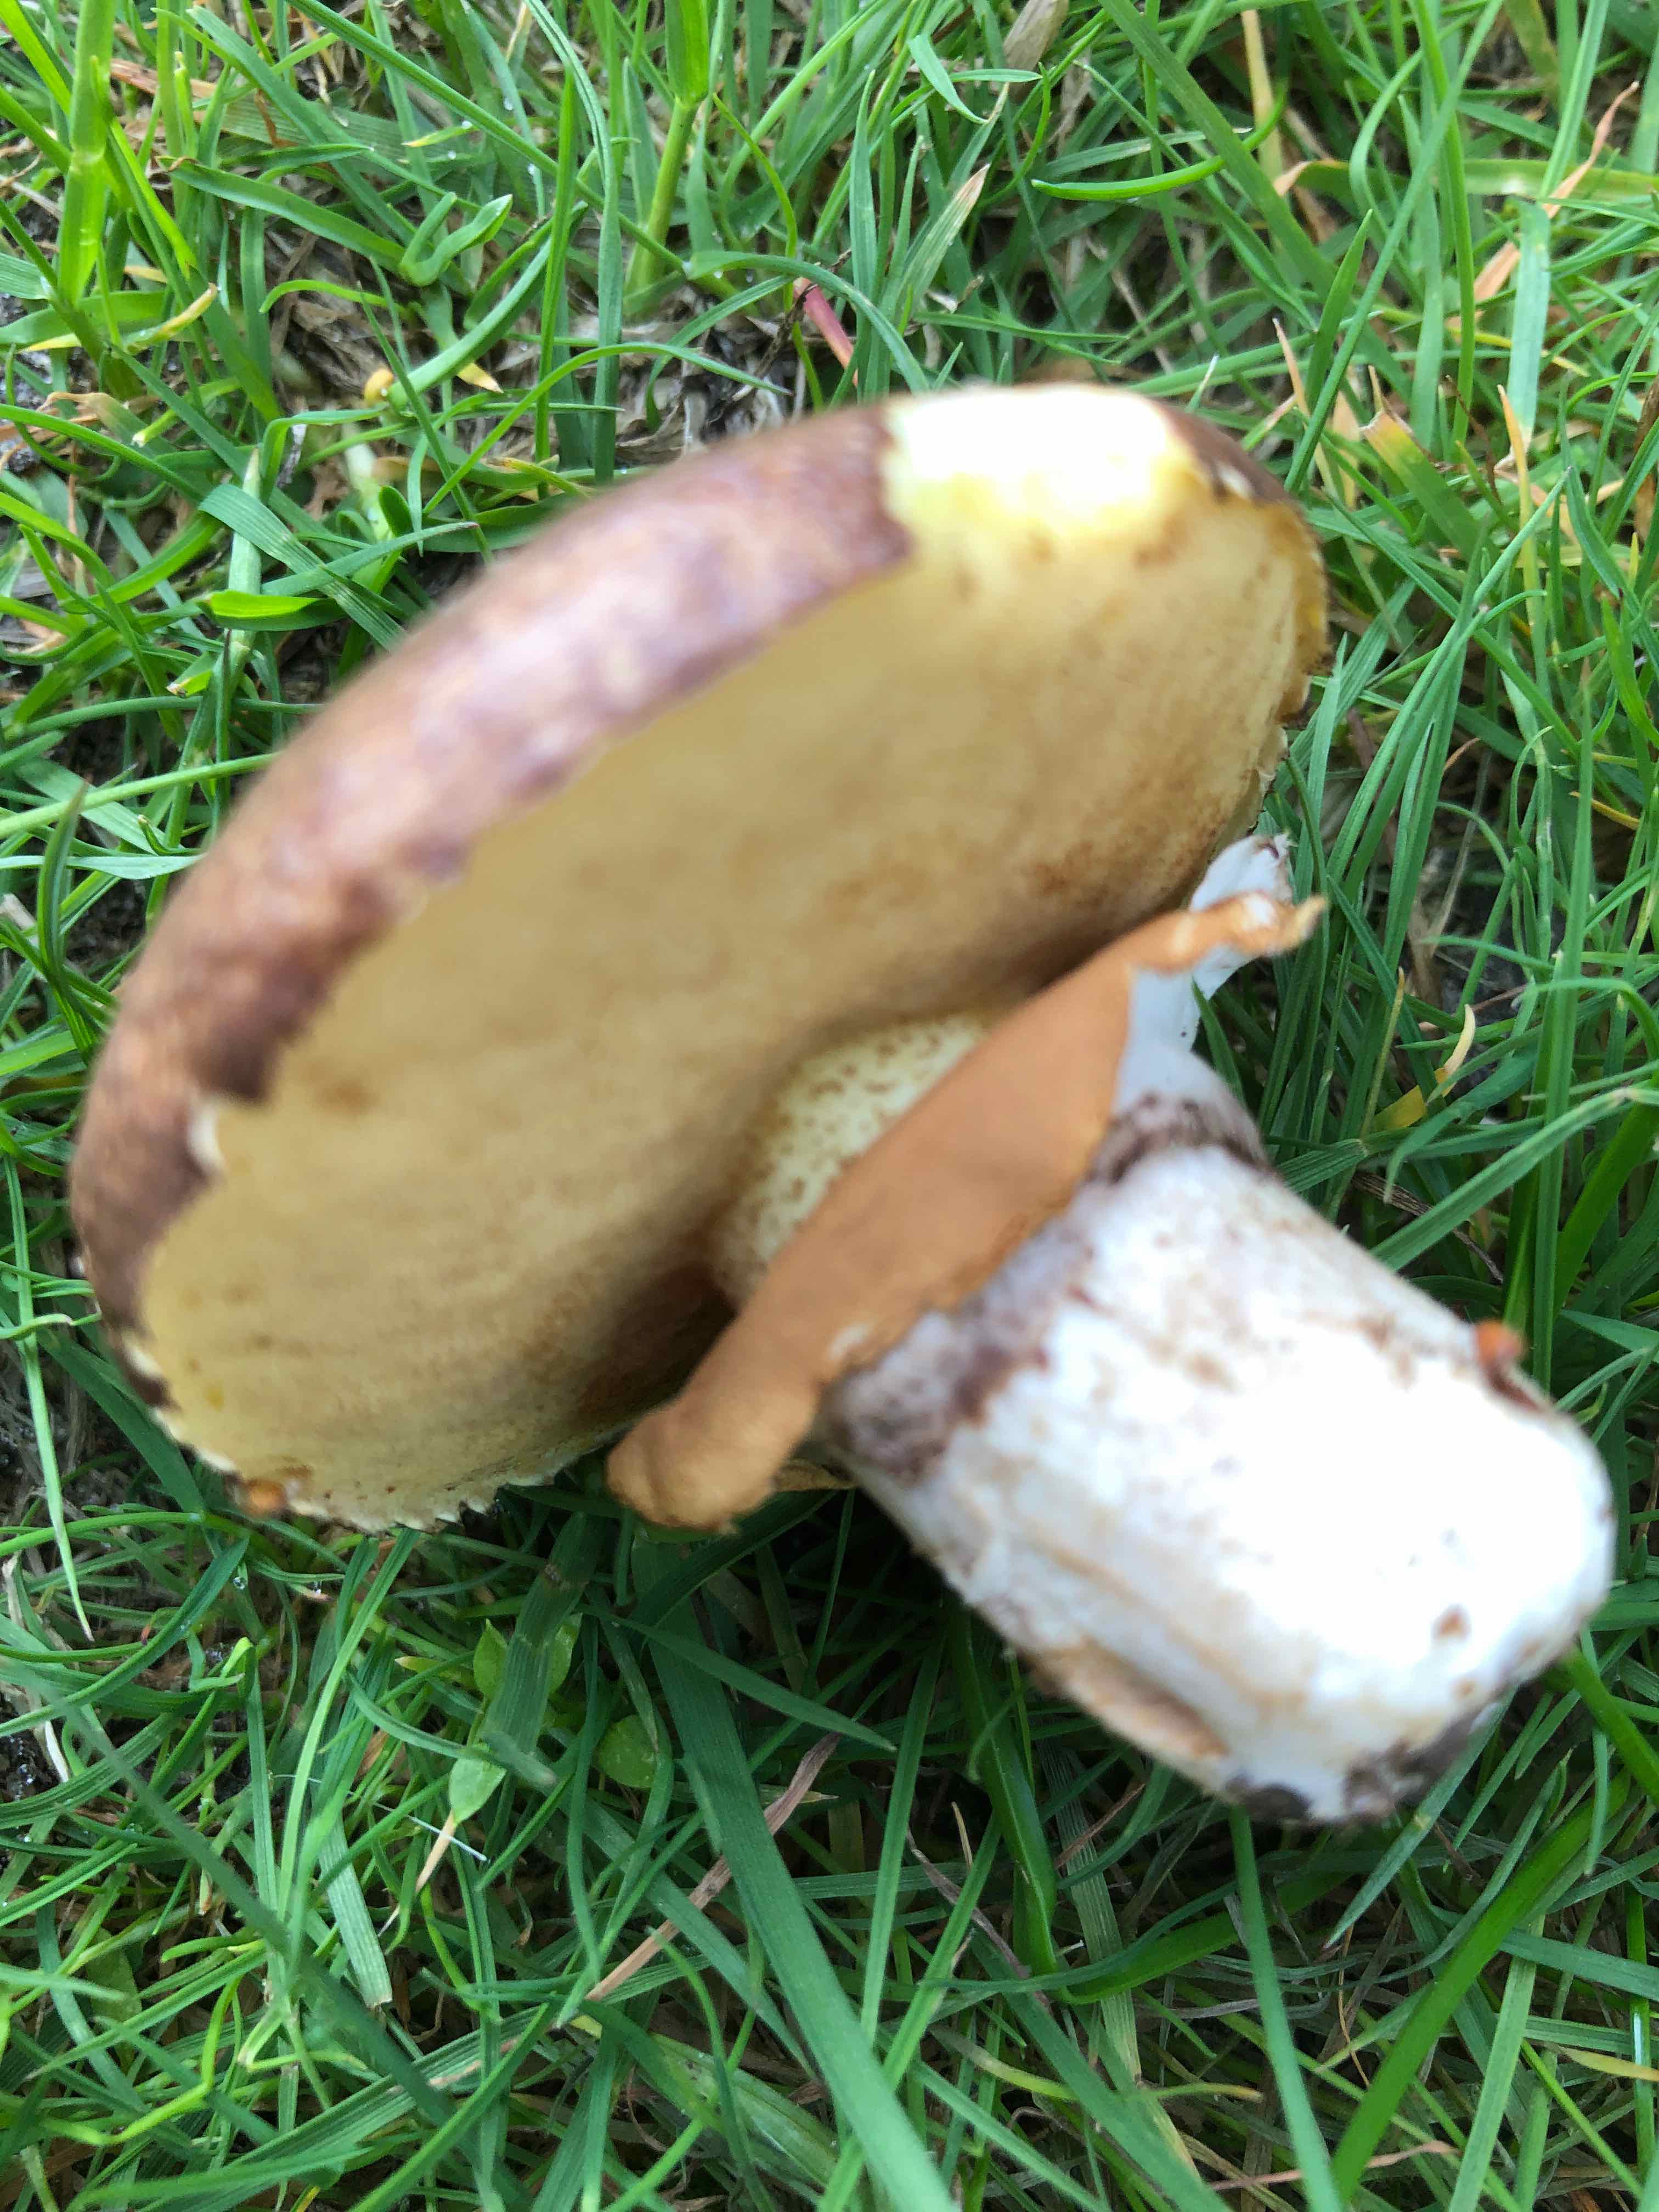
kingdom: Fungi
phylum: Basidiomycota
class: Agaricomycetes
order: Boletales
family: Suillaceae
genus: Suillus
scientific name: Suillus luteus
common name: brungul slimrørhat
